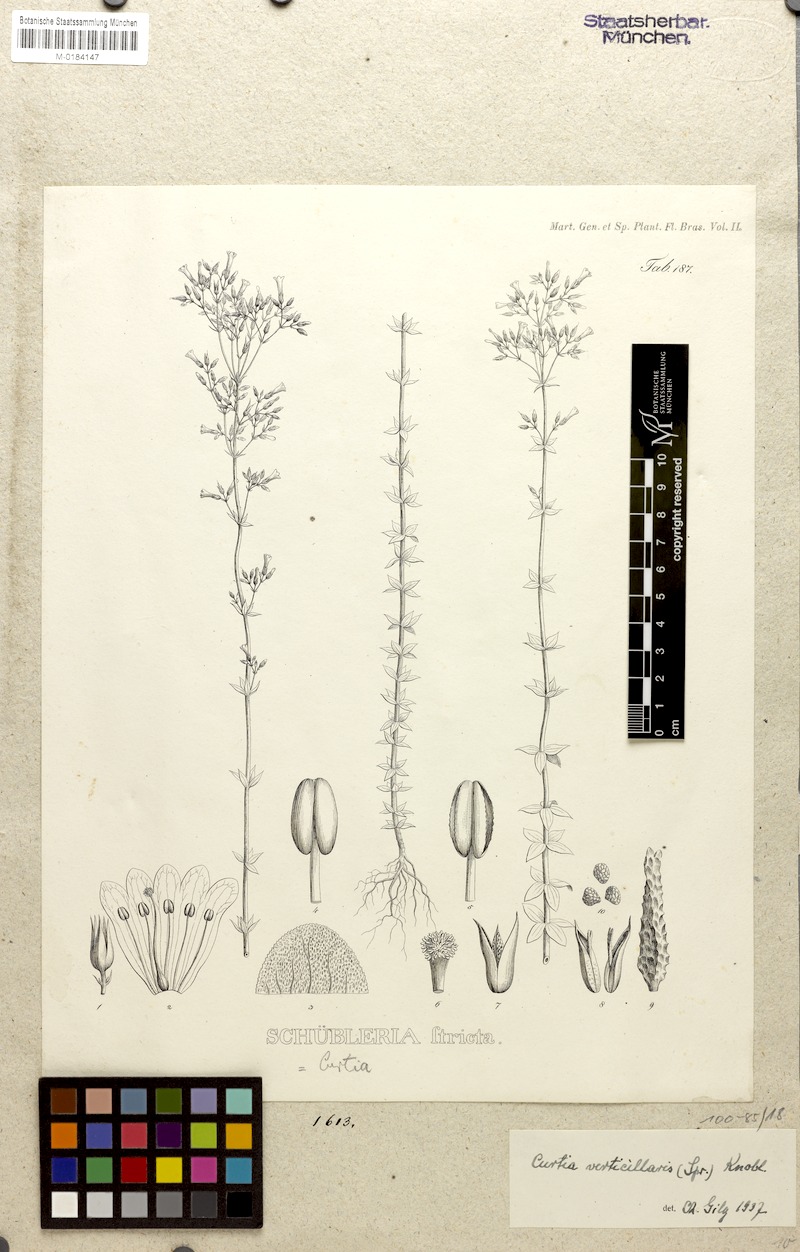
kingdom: Plantae
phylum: Tracheophyta
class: Magnoliopsida
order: Gentianales
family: Gentianaceae
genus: Curtia
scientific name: Curtia verticillaris
